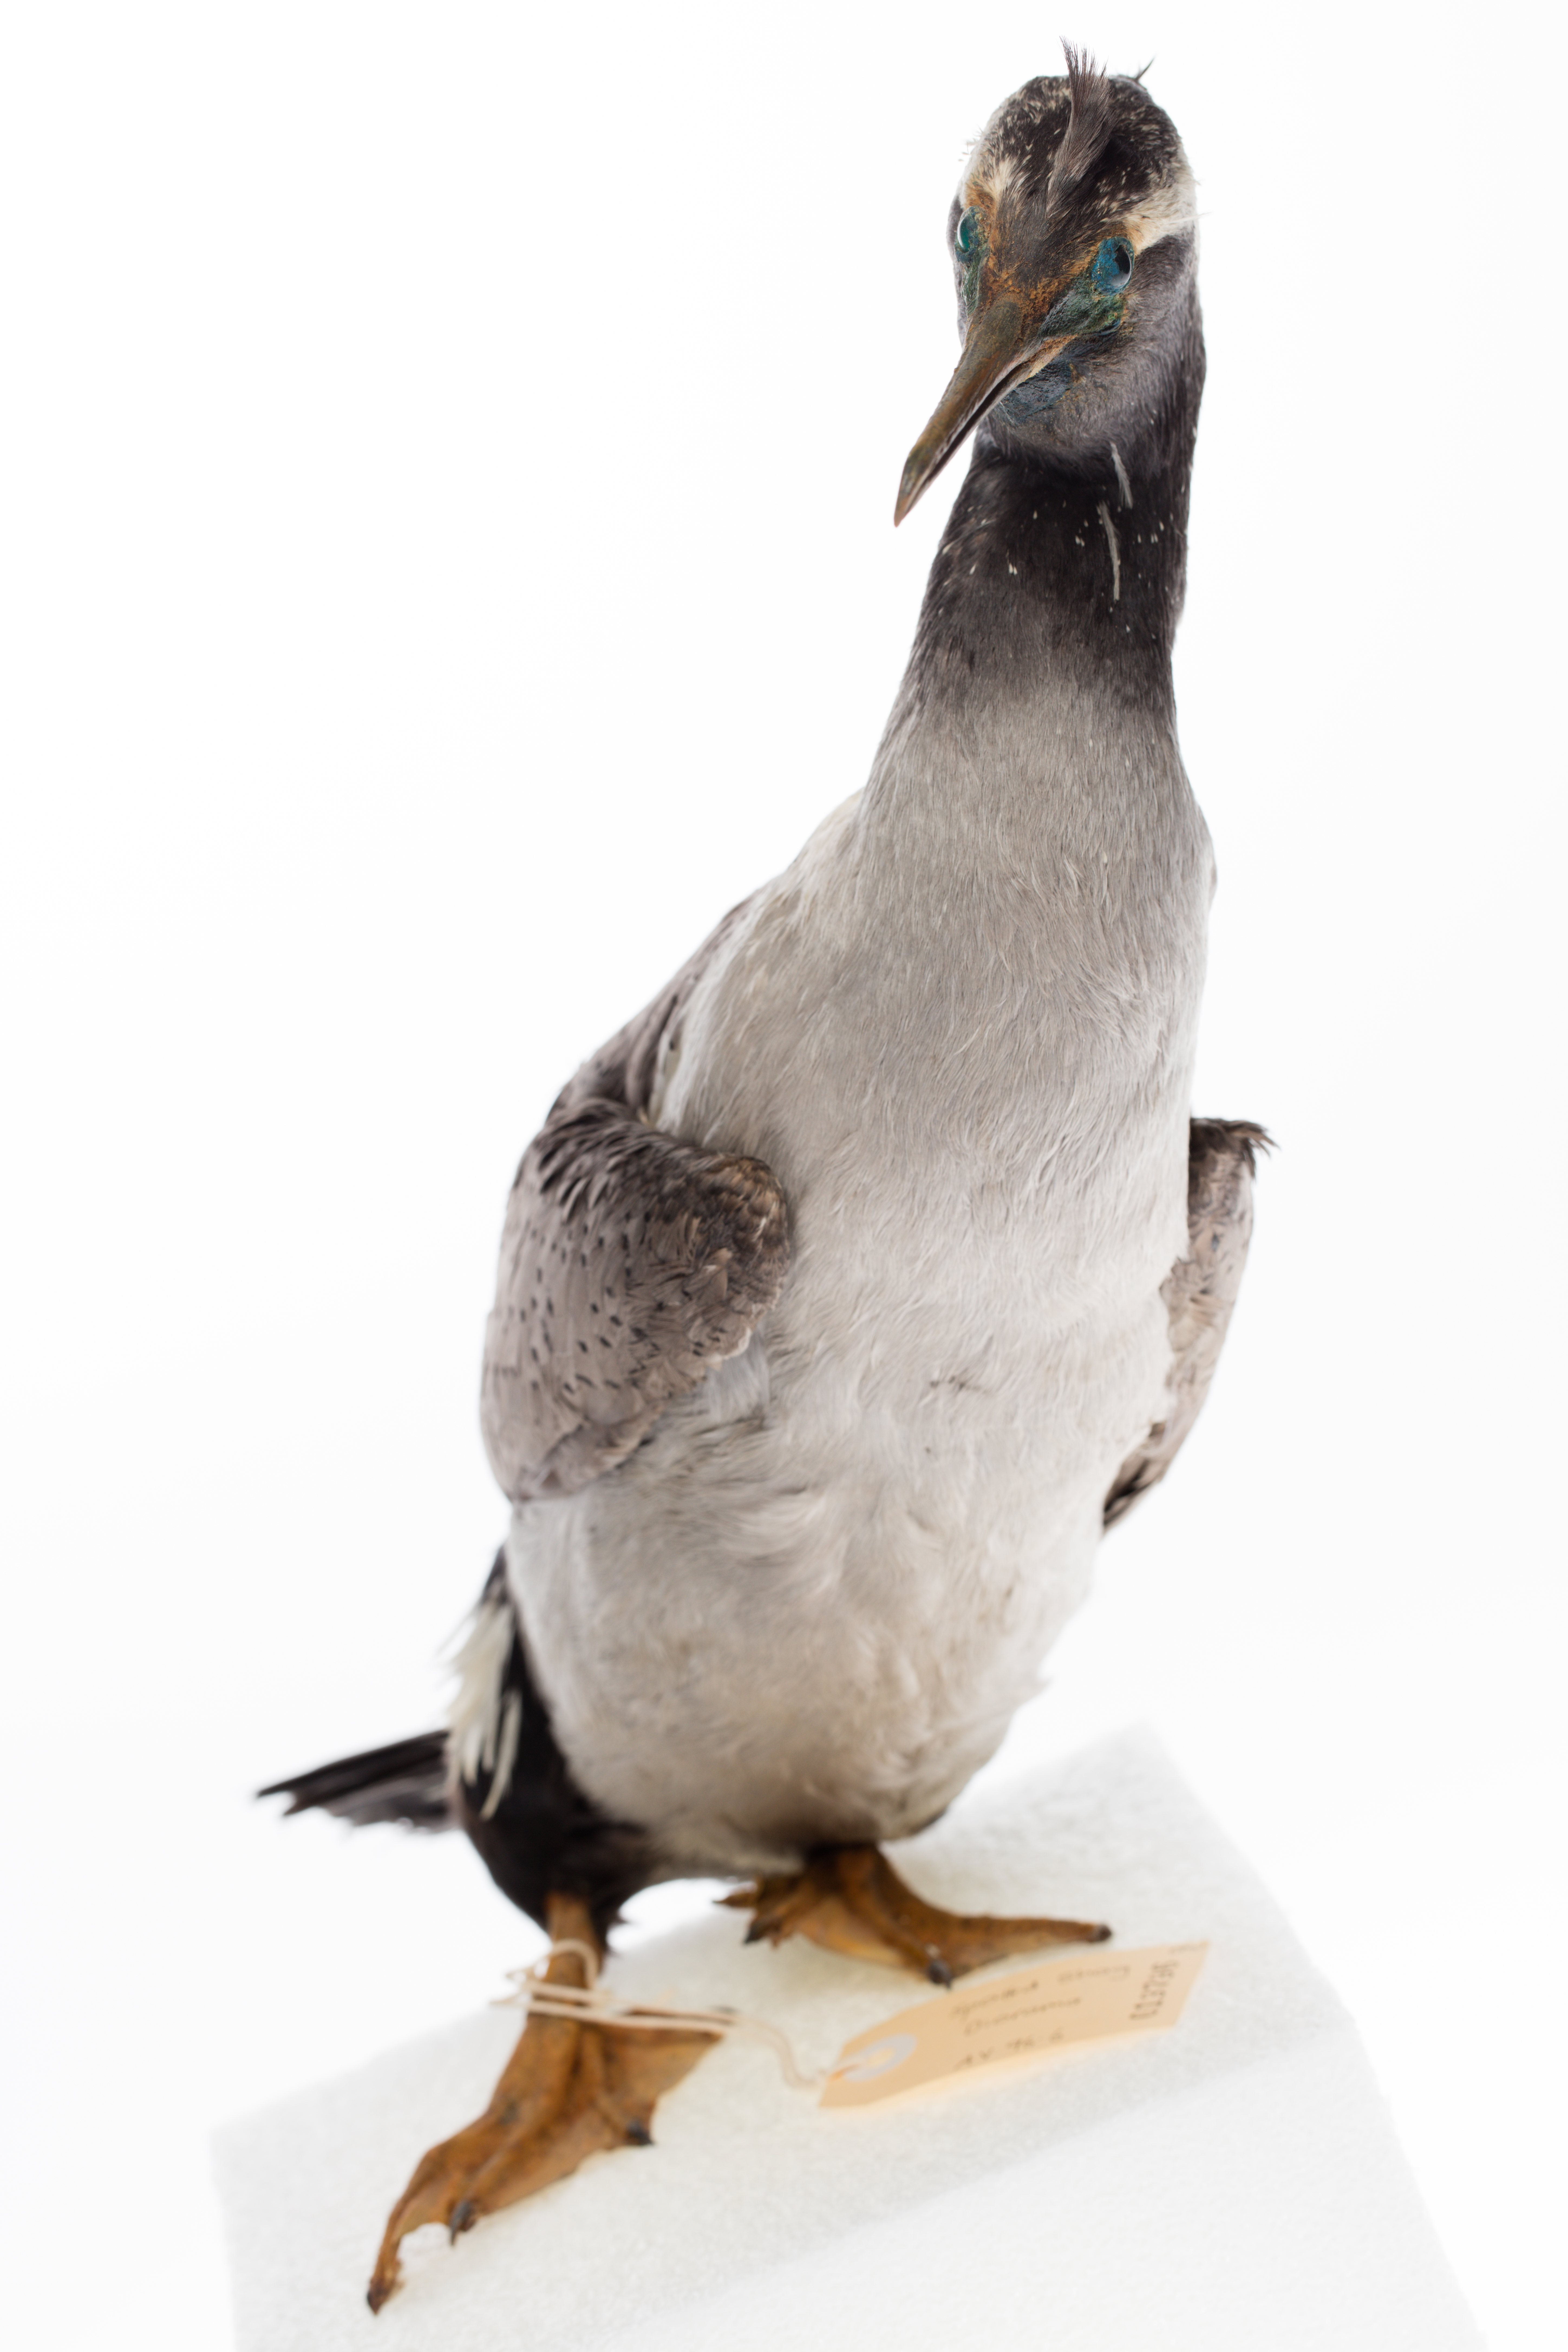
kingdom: Animalia
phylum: Chordata
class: Aves
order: Suliformes
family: Phalacrocoracidae
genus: Phalacrocorax
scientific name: Phalacrocorax punctatus
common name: Spotted shag
